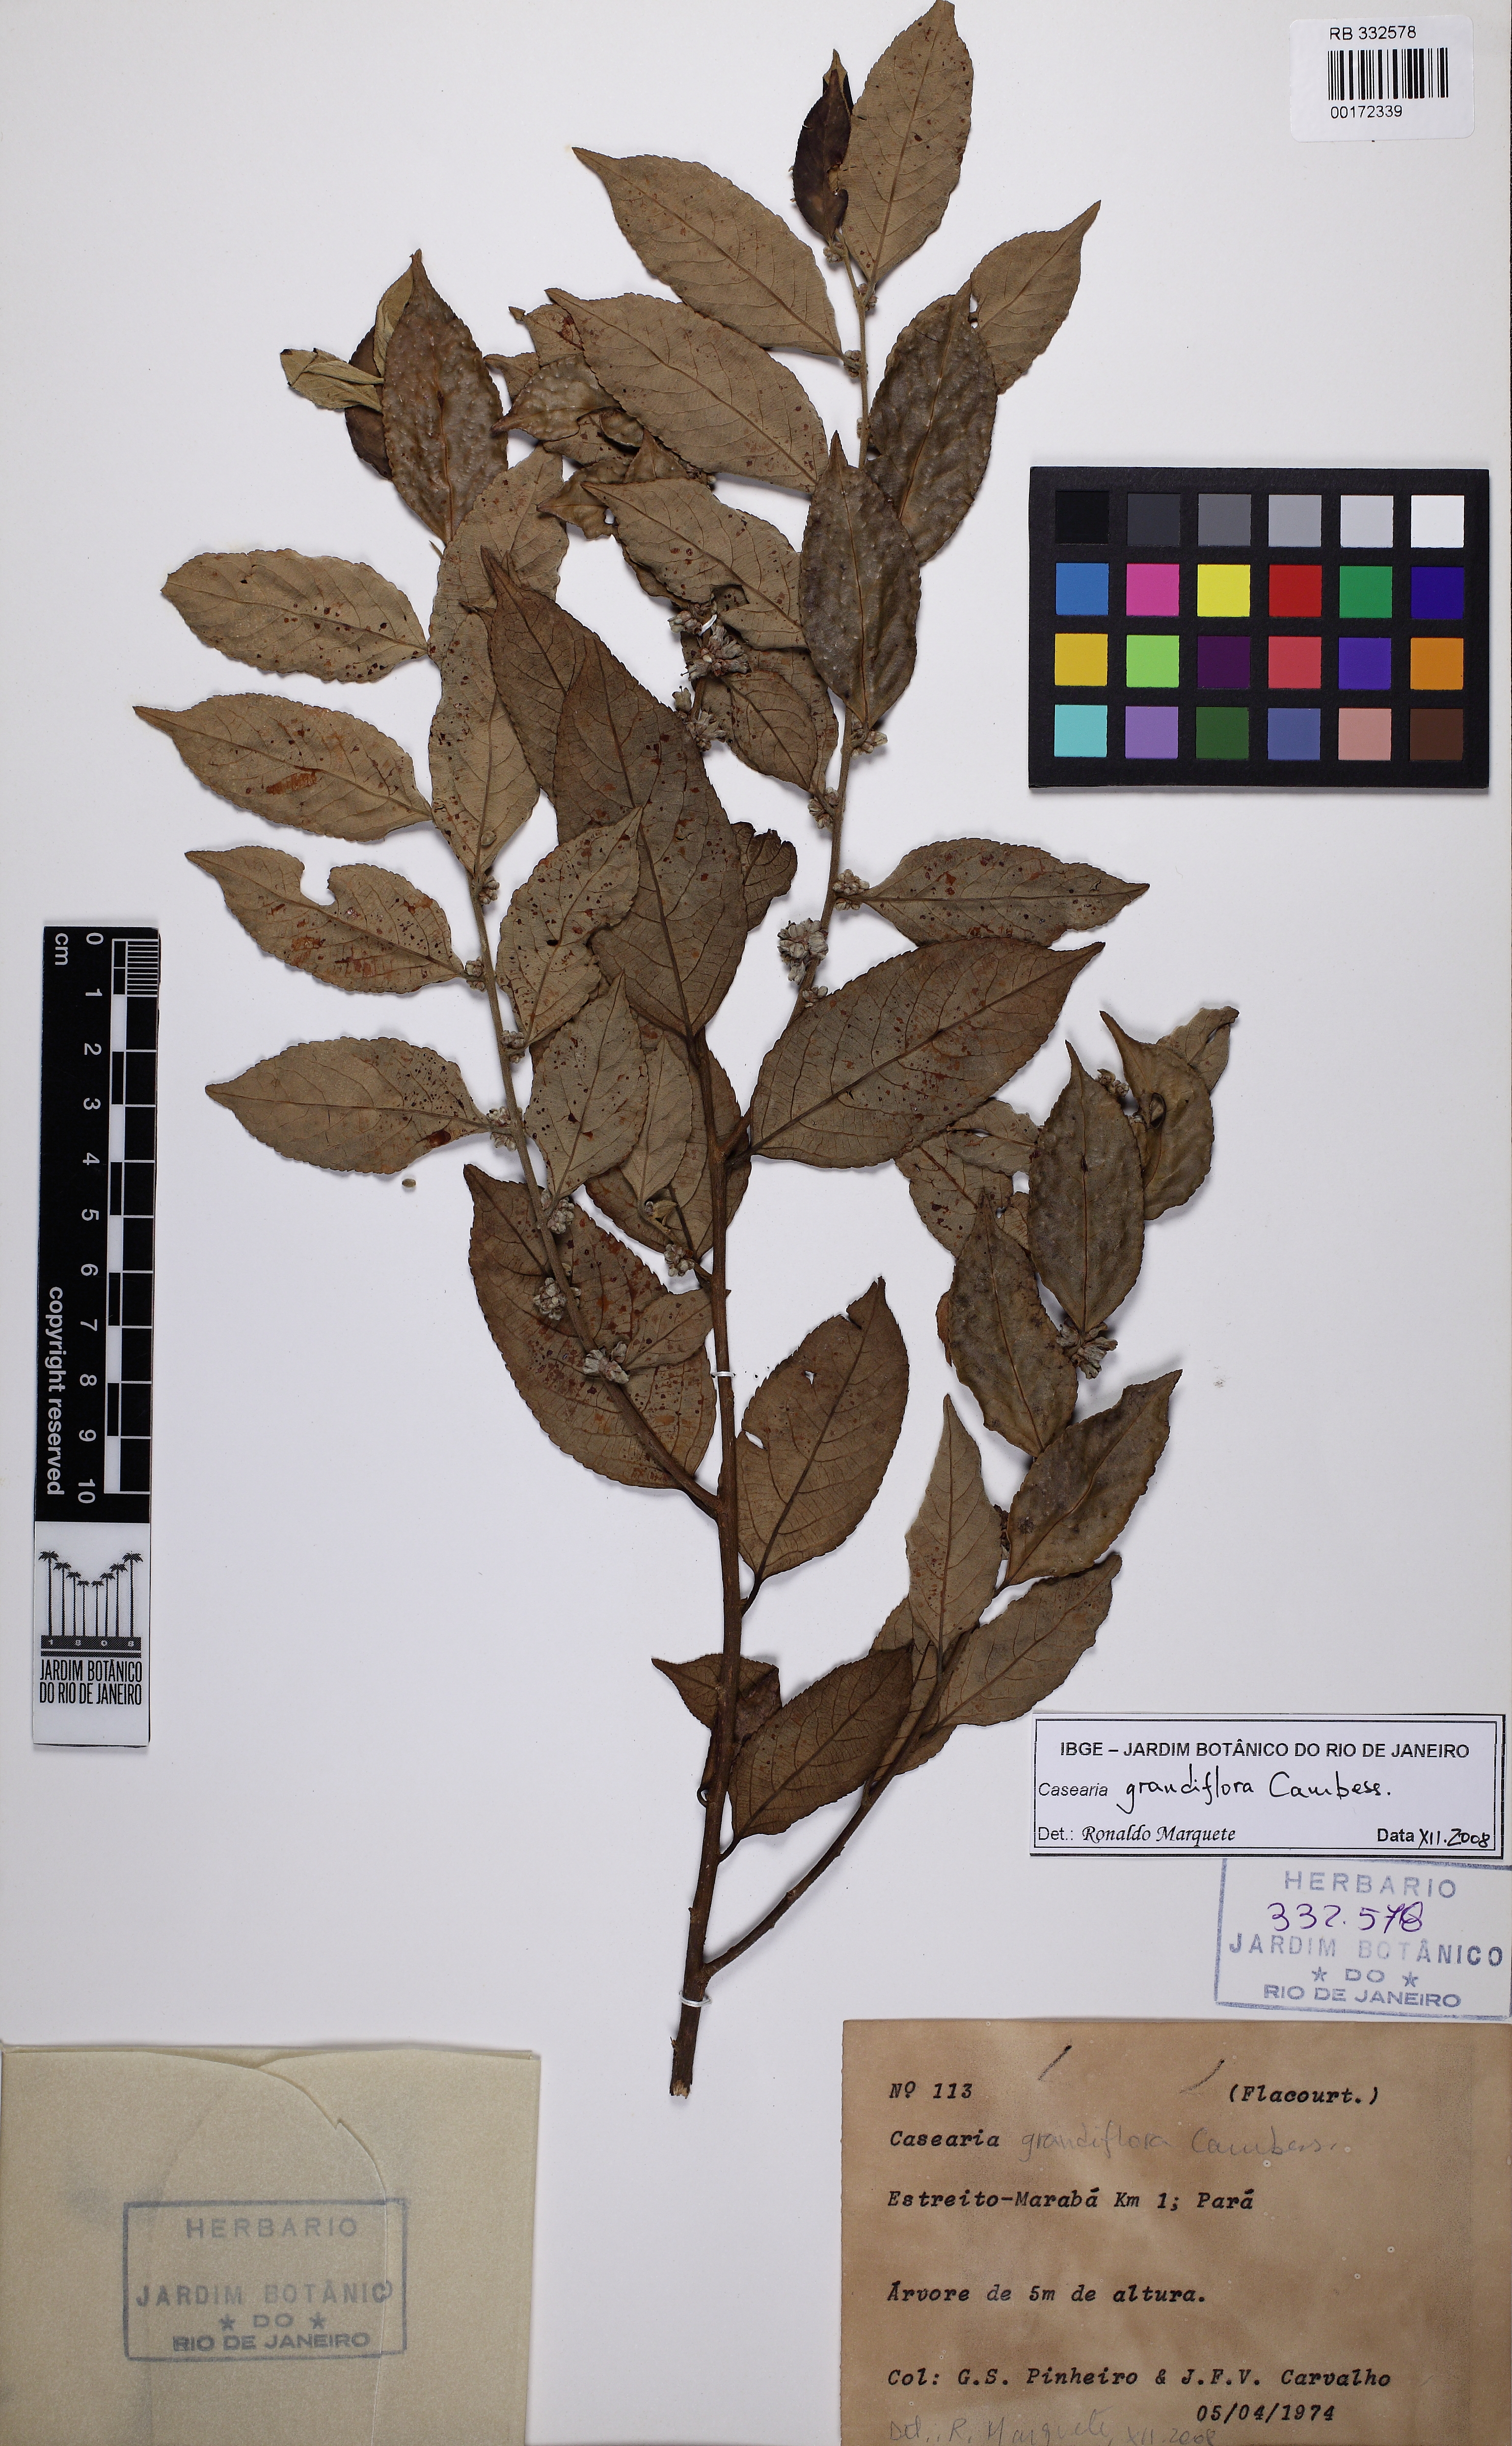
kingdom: Plantae
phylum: Tracheophyta
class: Magnoliopsida
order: Malpighiales
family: Salicaceae
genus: Casearia
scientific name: Casearia
